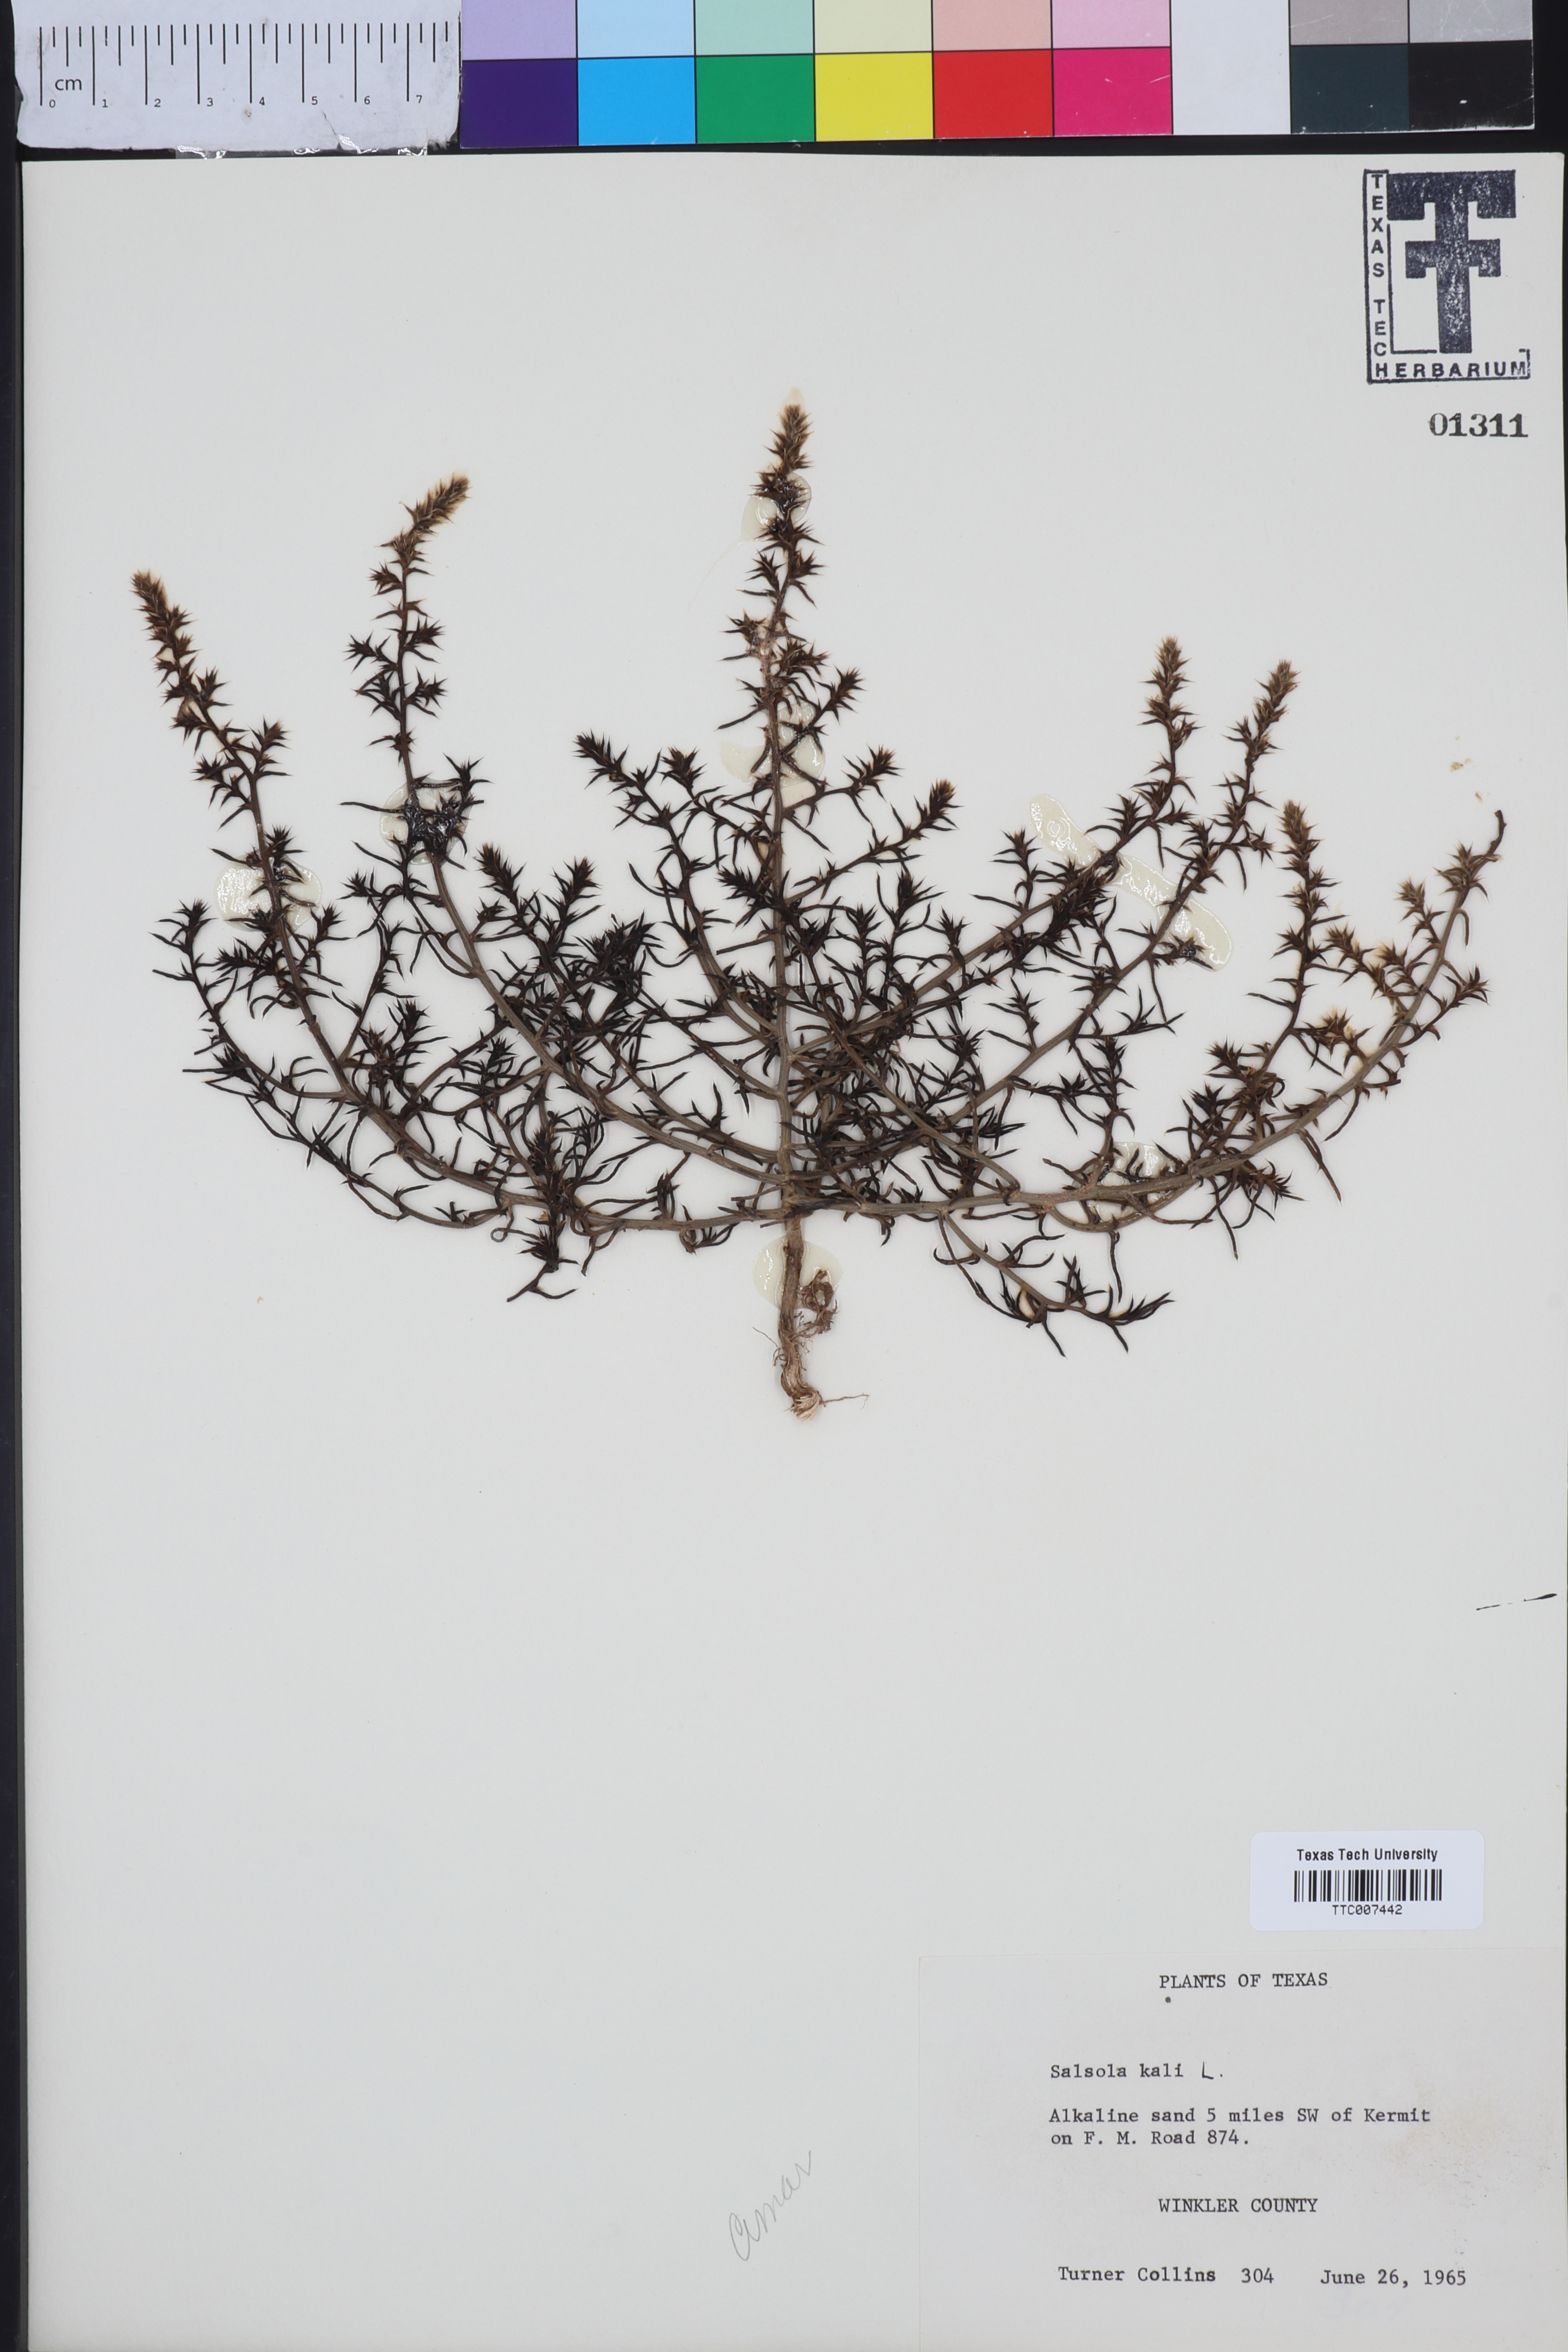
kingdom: Plantae
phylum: Tracheophyta
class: Magnoliopsida
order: Caryophyllales
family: Amaranthaceae
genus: Salsola
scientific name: Salsola kali
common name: Saltwort
